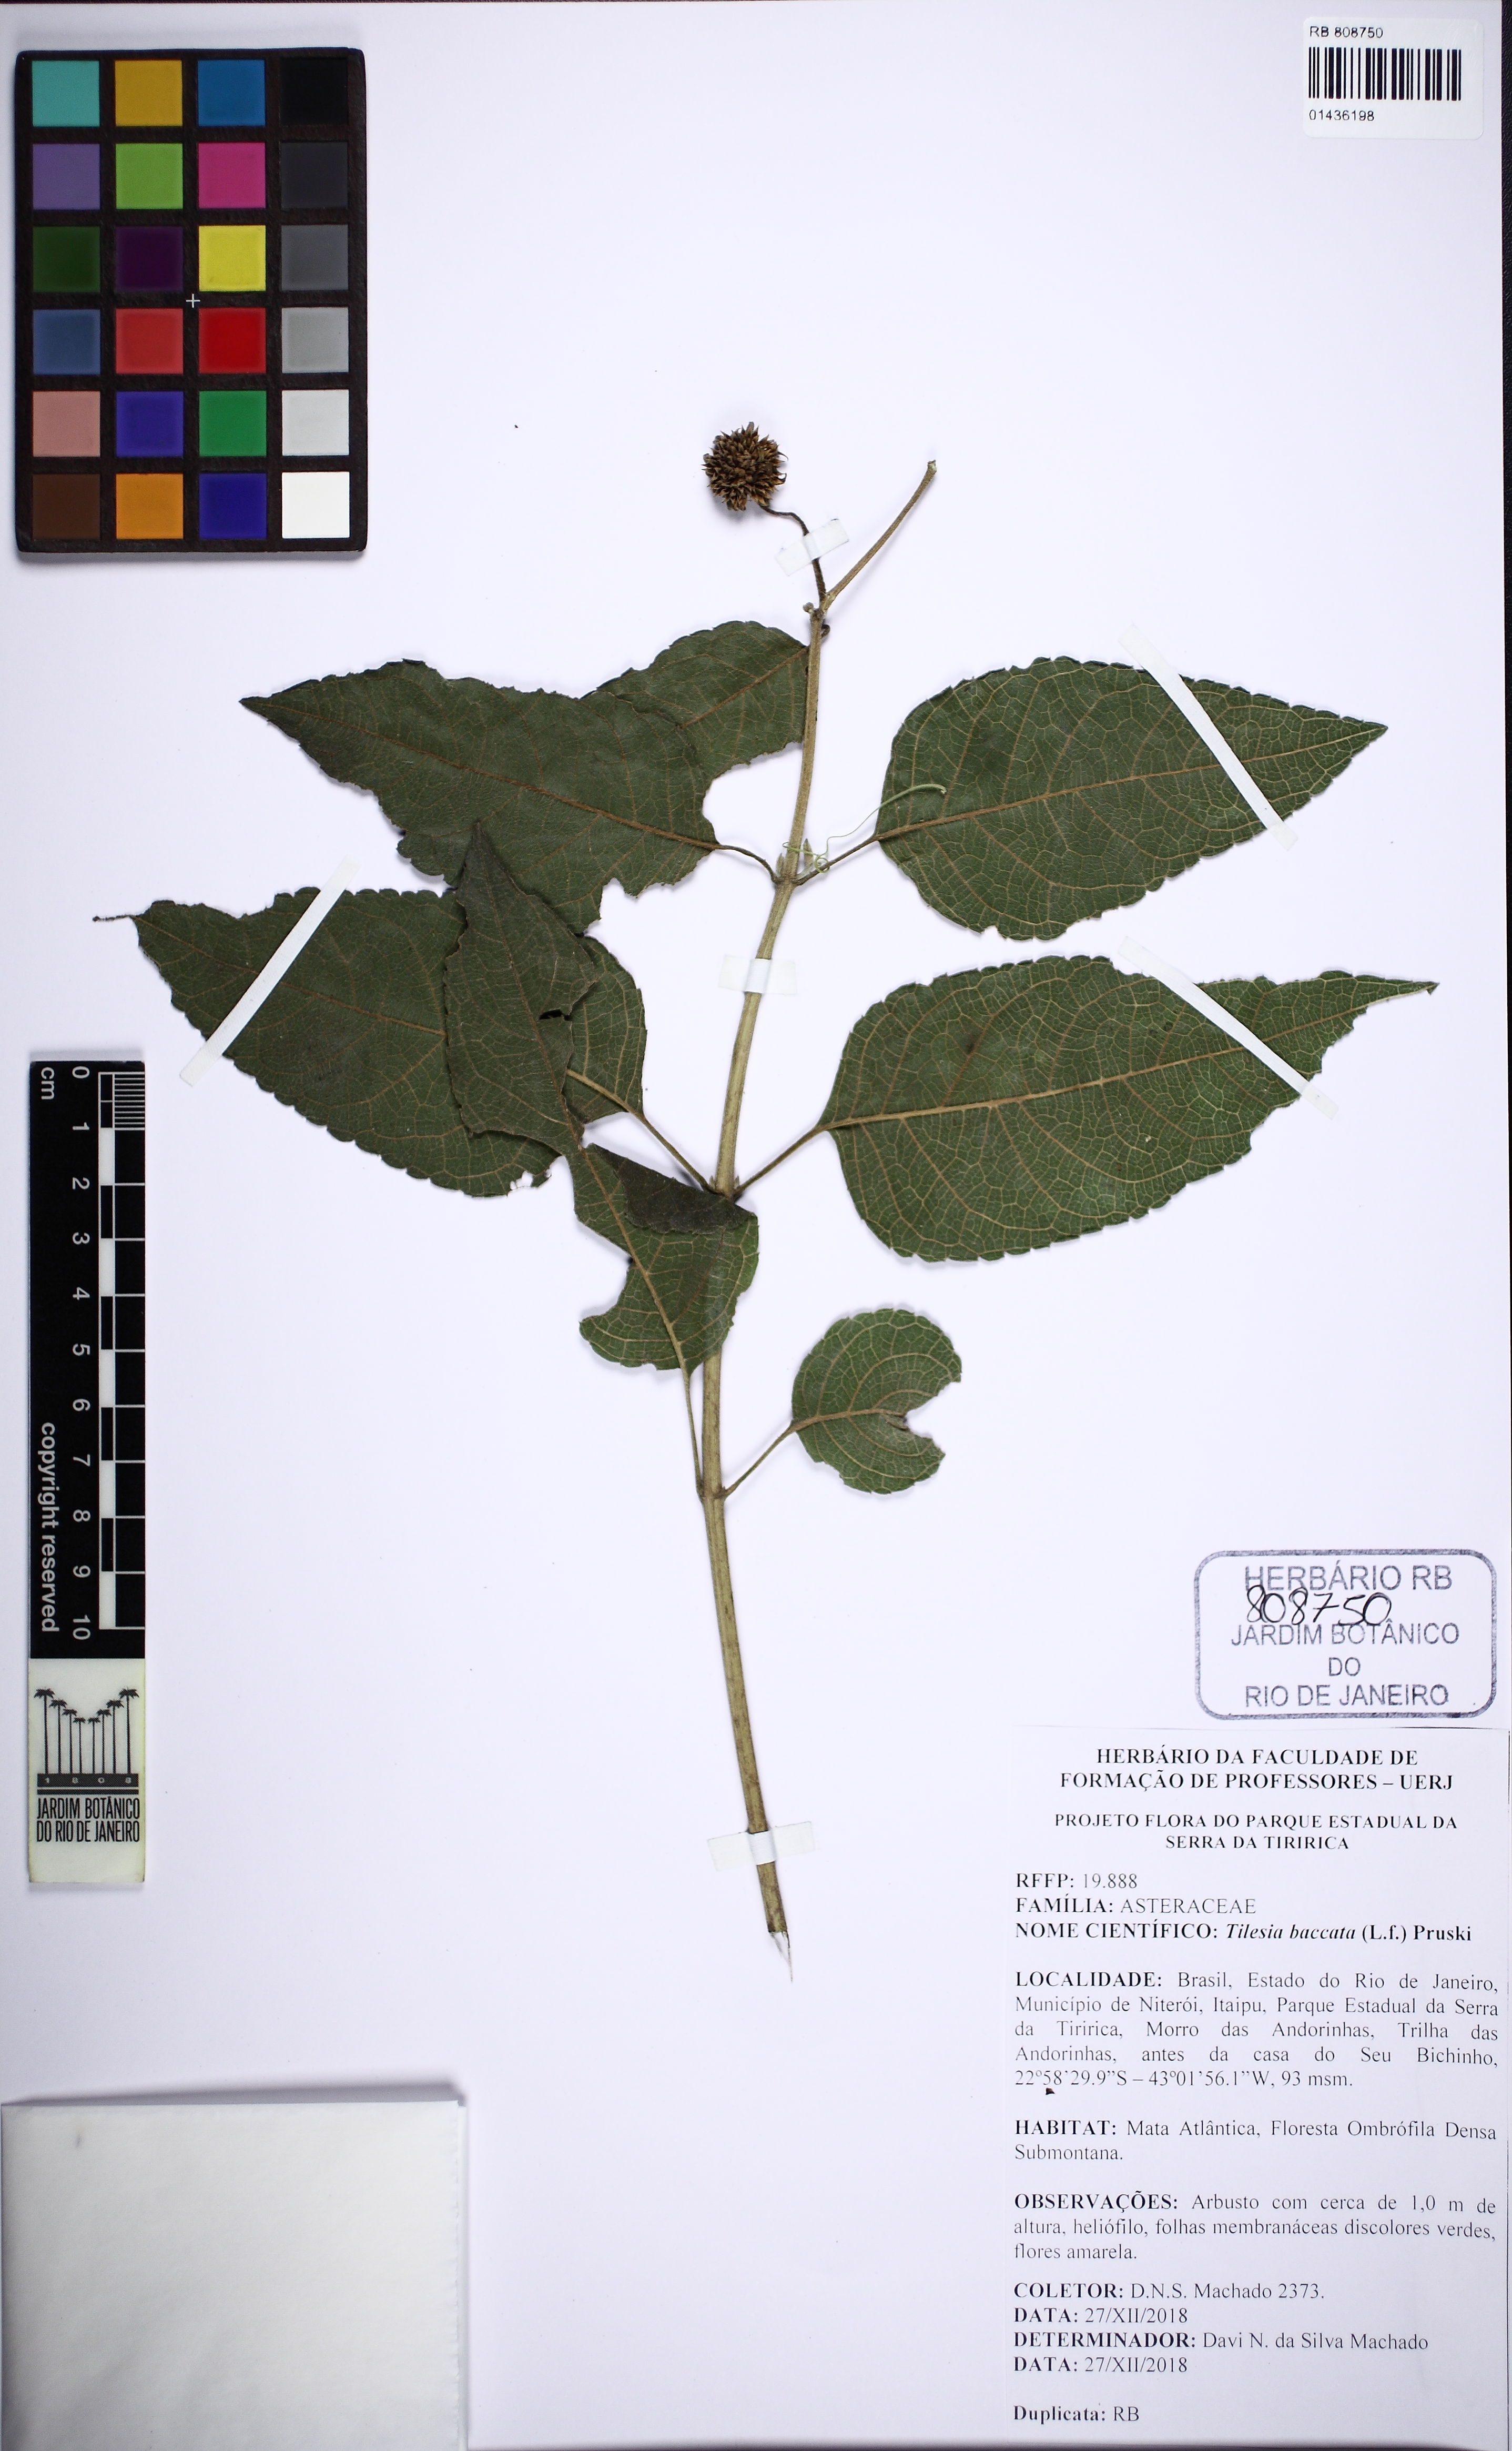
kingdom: Plantae
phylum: Tracheophyta
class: Magnoliopsida
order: Asterales
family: Asteraceae
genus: Tilesia
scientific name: Tilesia baccata
